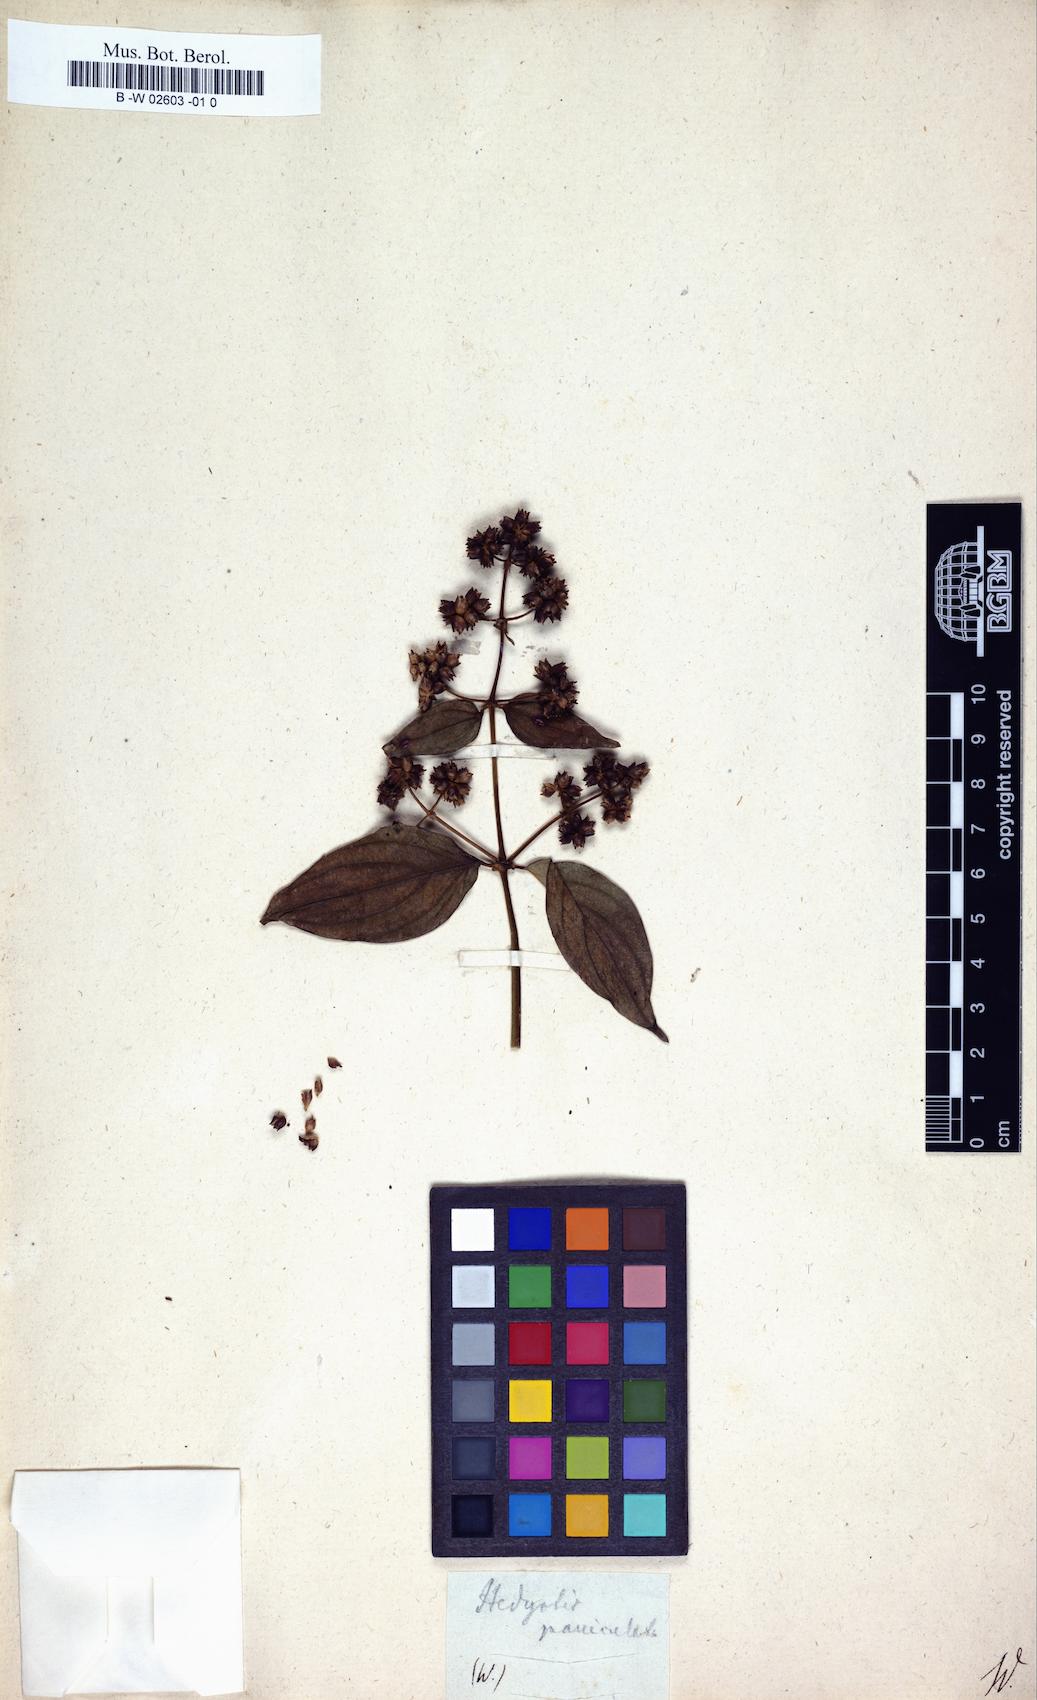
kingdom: Plantae
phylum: Tracheophyta
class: Magnoliopsida
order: Gentianales
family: Rubiaceae
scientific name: Rubiaceae
